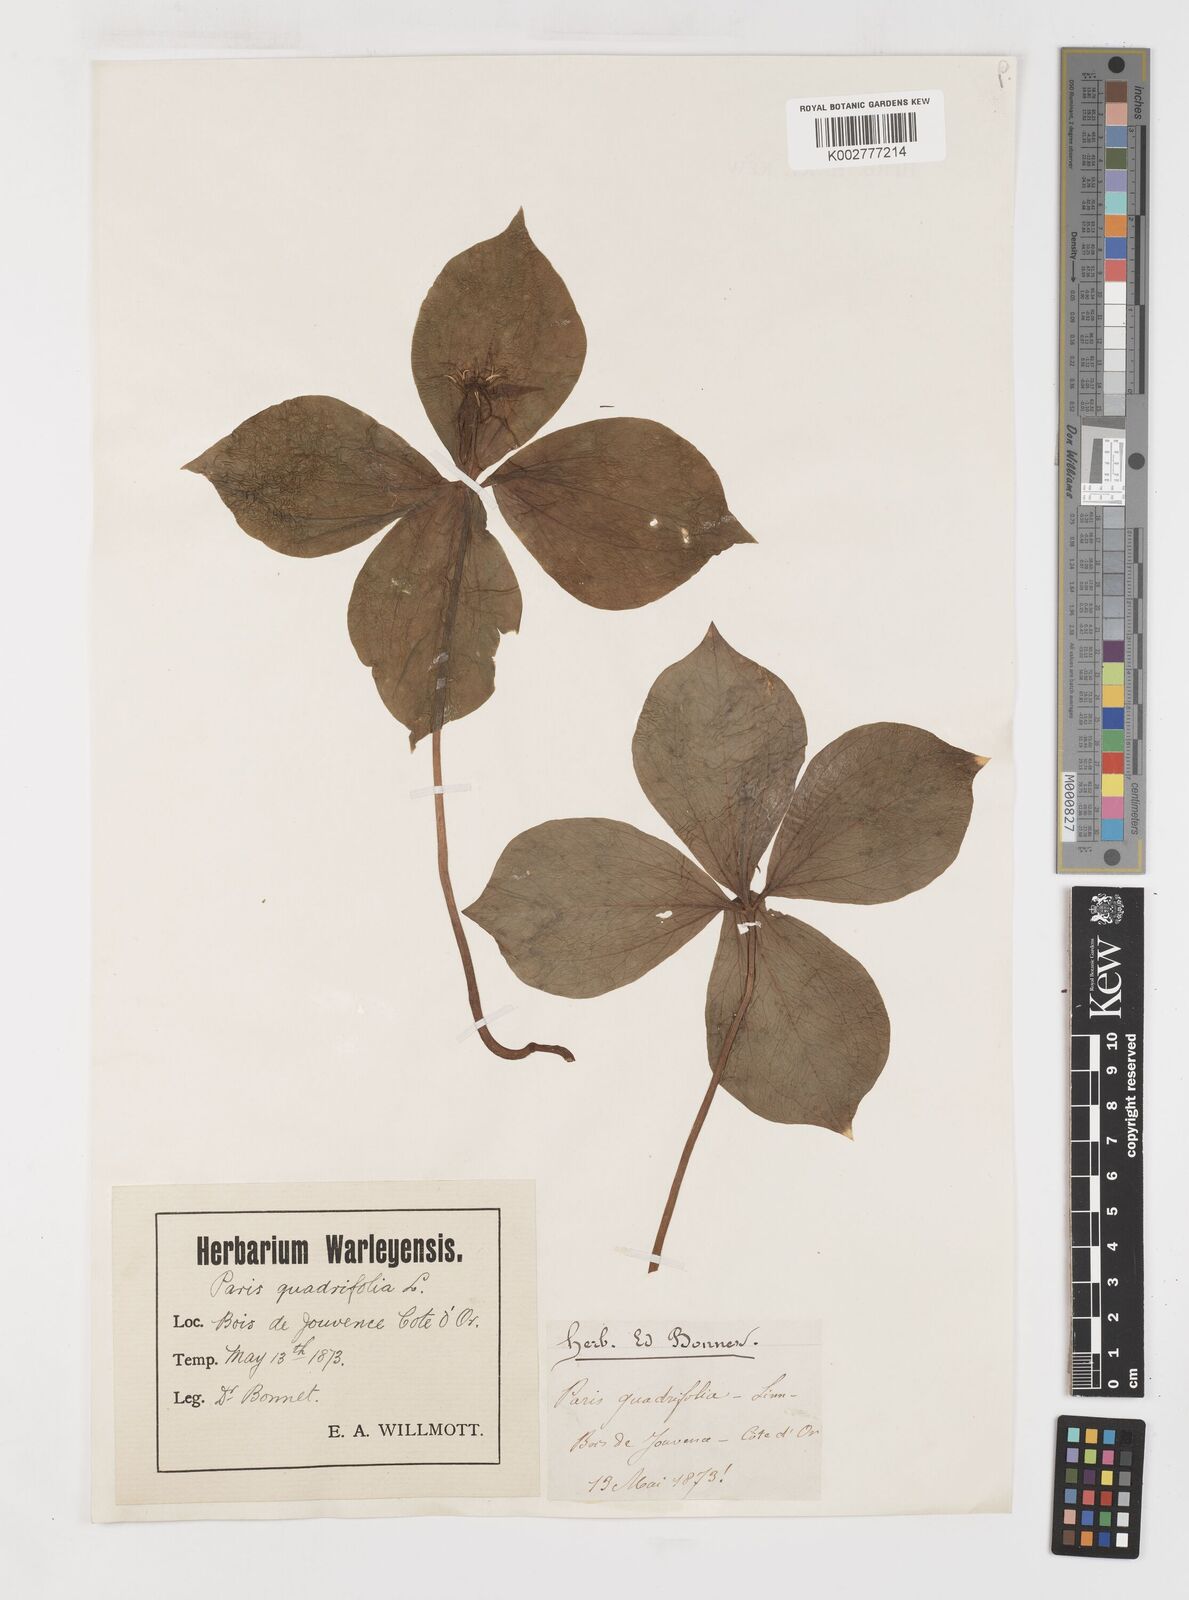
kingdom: Plantae
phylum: Tracheophyta
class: Liliopsida
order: Liliales
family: Melanthiaceae
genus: Paris
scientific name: Paris quadrifolia
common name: Herb-paris
